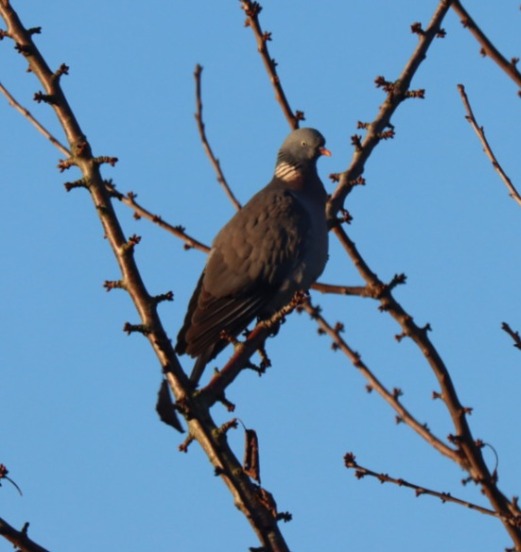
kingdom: Animalia
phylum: Chordata
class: Aves
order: Columbiformes
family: Columbidae
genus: Columba
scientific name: Columba palumbus
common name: Ringdue
